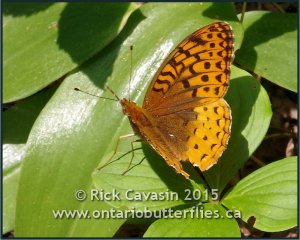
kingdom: Animalia
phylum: Arthropoda
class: Insecta
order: Lepidoptera
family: Nymphalidae
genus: Speyeria
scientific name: Speyeria cybele
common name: Great Spangled Fritillary
